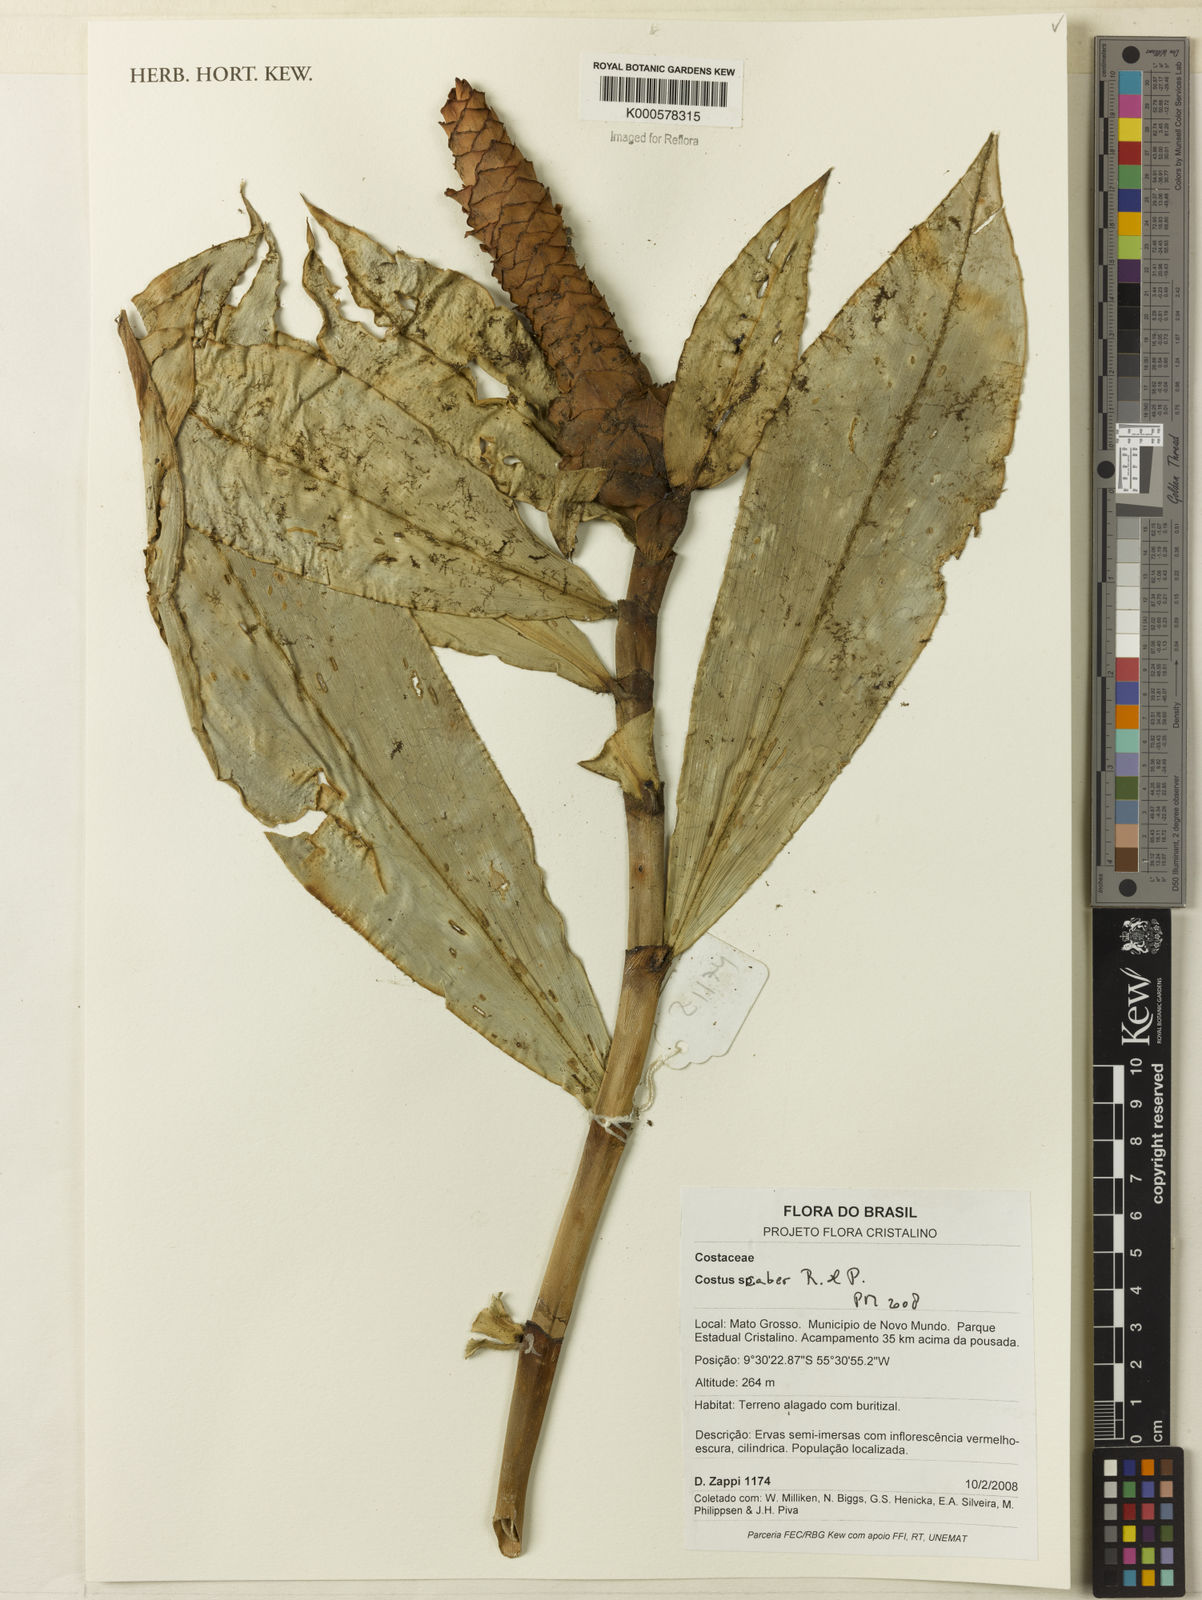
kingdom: Plantae
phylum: Tracheophyta
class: Liliopsida
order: Zingiberales
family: Costaceae
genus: Costus
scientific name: Costus scaber
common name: Spiral head ginger
